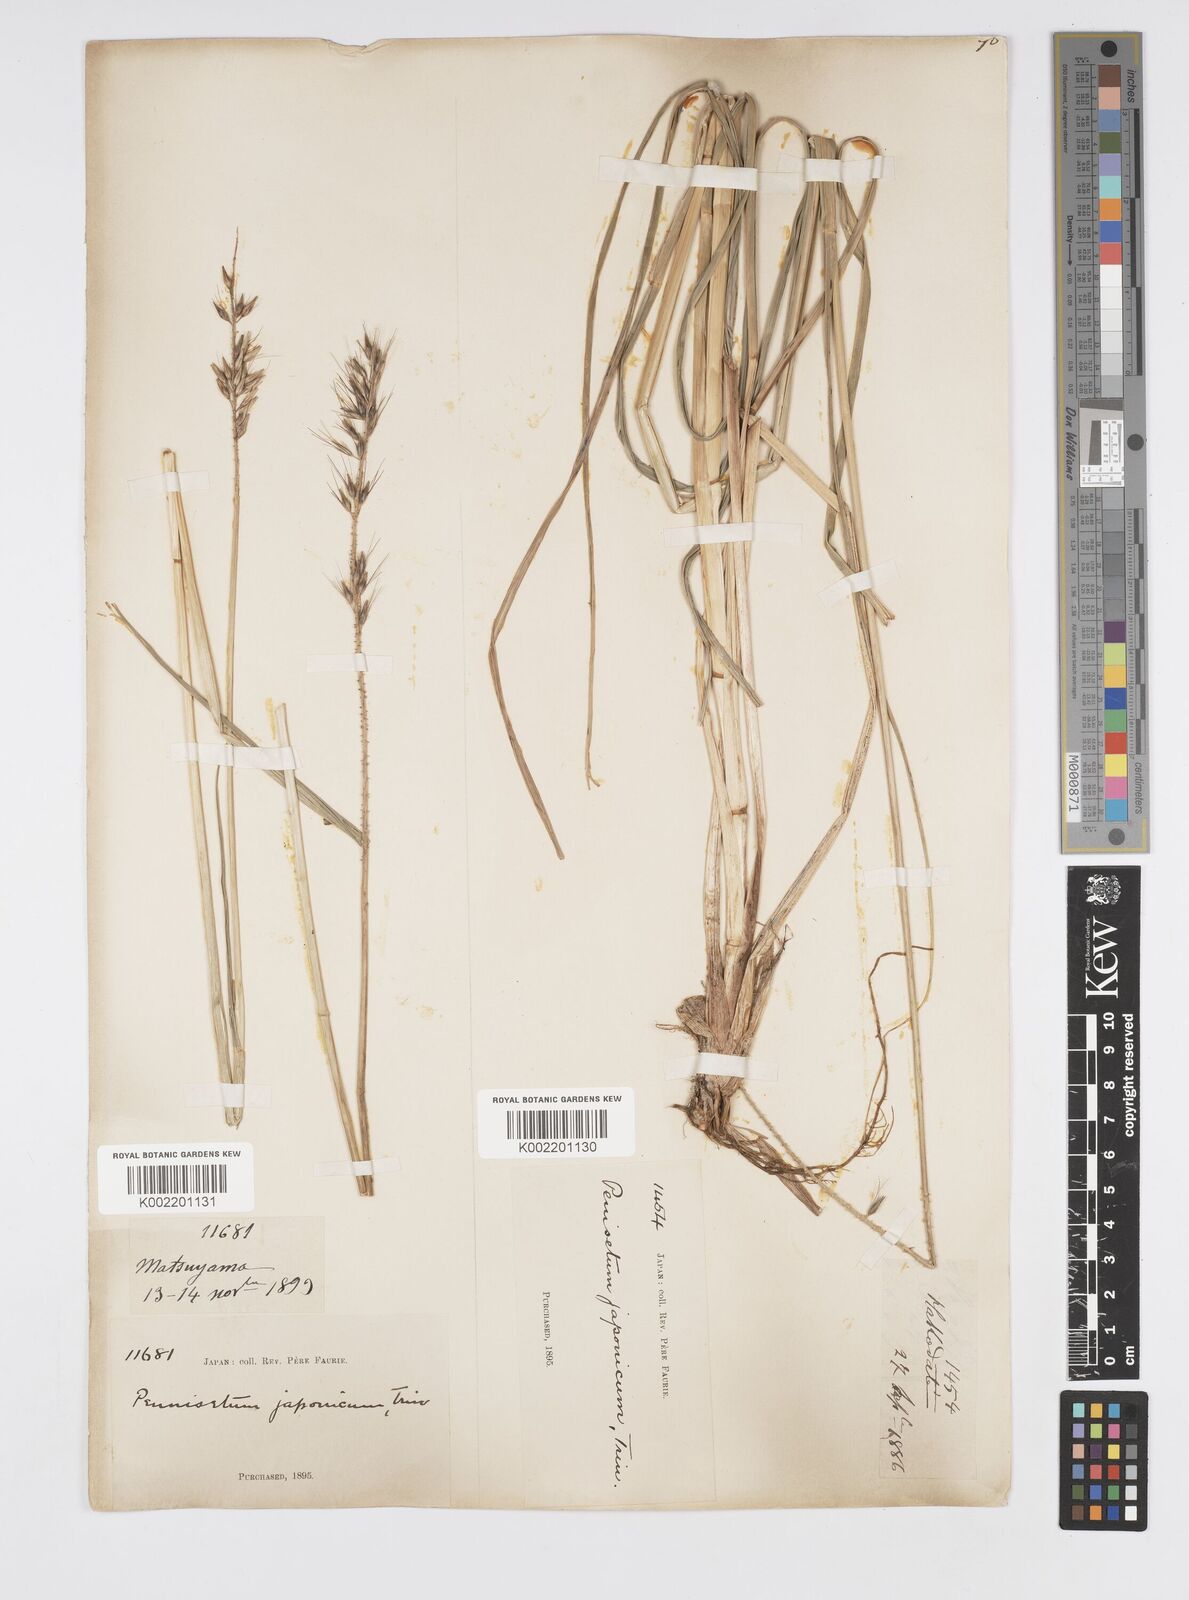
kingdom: Plantae
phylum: Tracheophyta
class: Liliopsida
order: Poales
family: Poaceae
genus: Cenchrus
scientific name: Cenchrus alopecuroides
